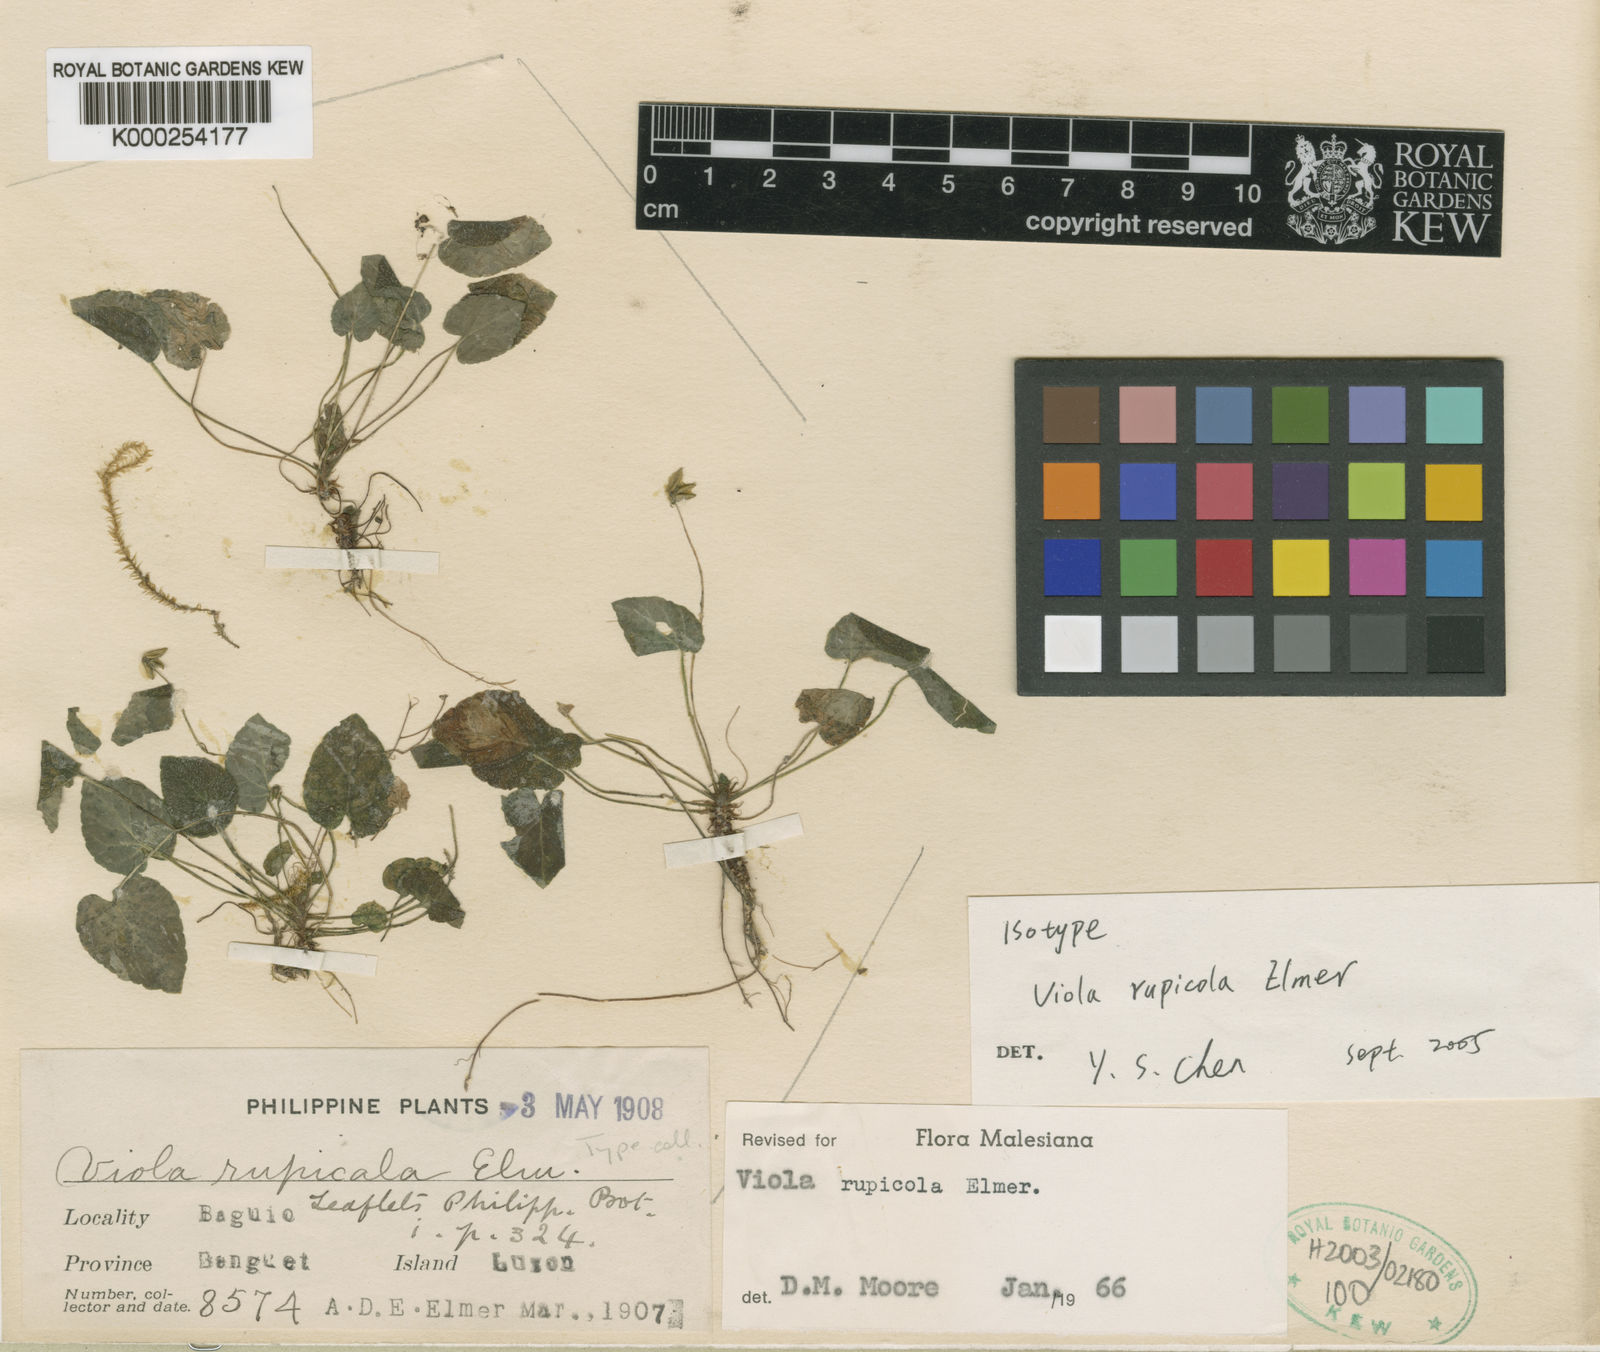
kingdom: Plantae
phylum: Tracheophyta
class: Magnoliopsida
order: Malpighiales
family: Violaceae
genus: Viola
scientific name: Viola rupicola
